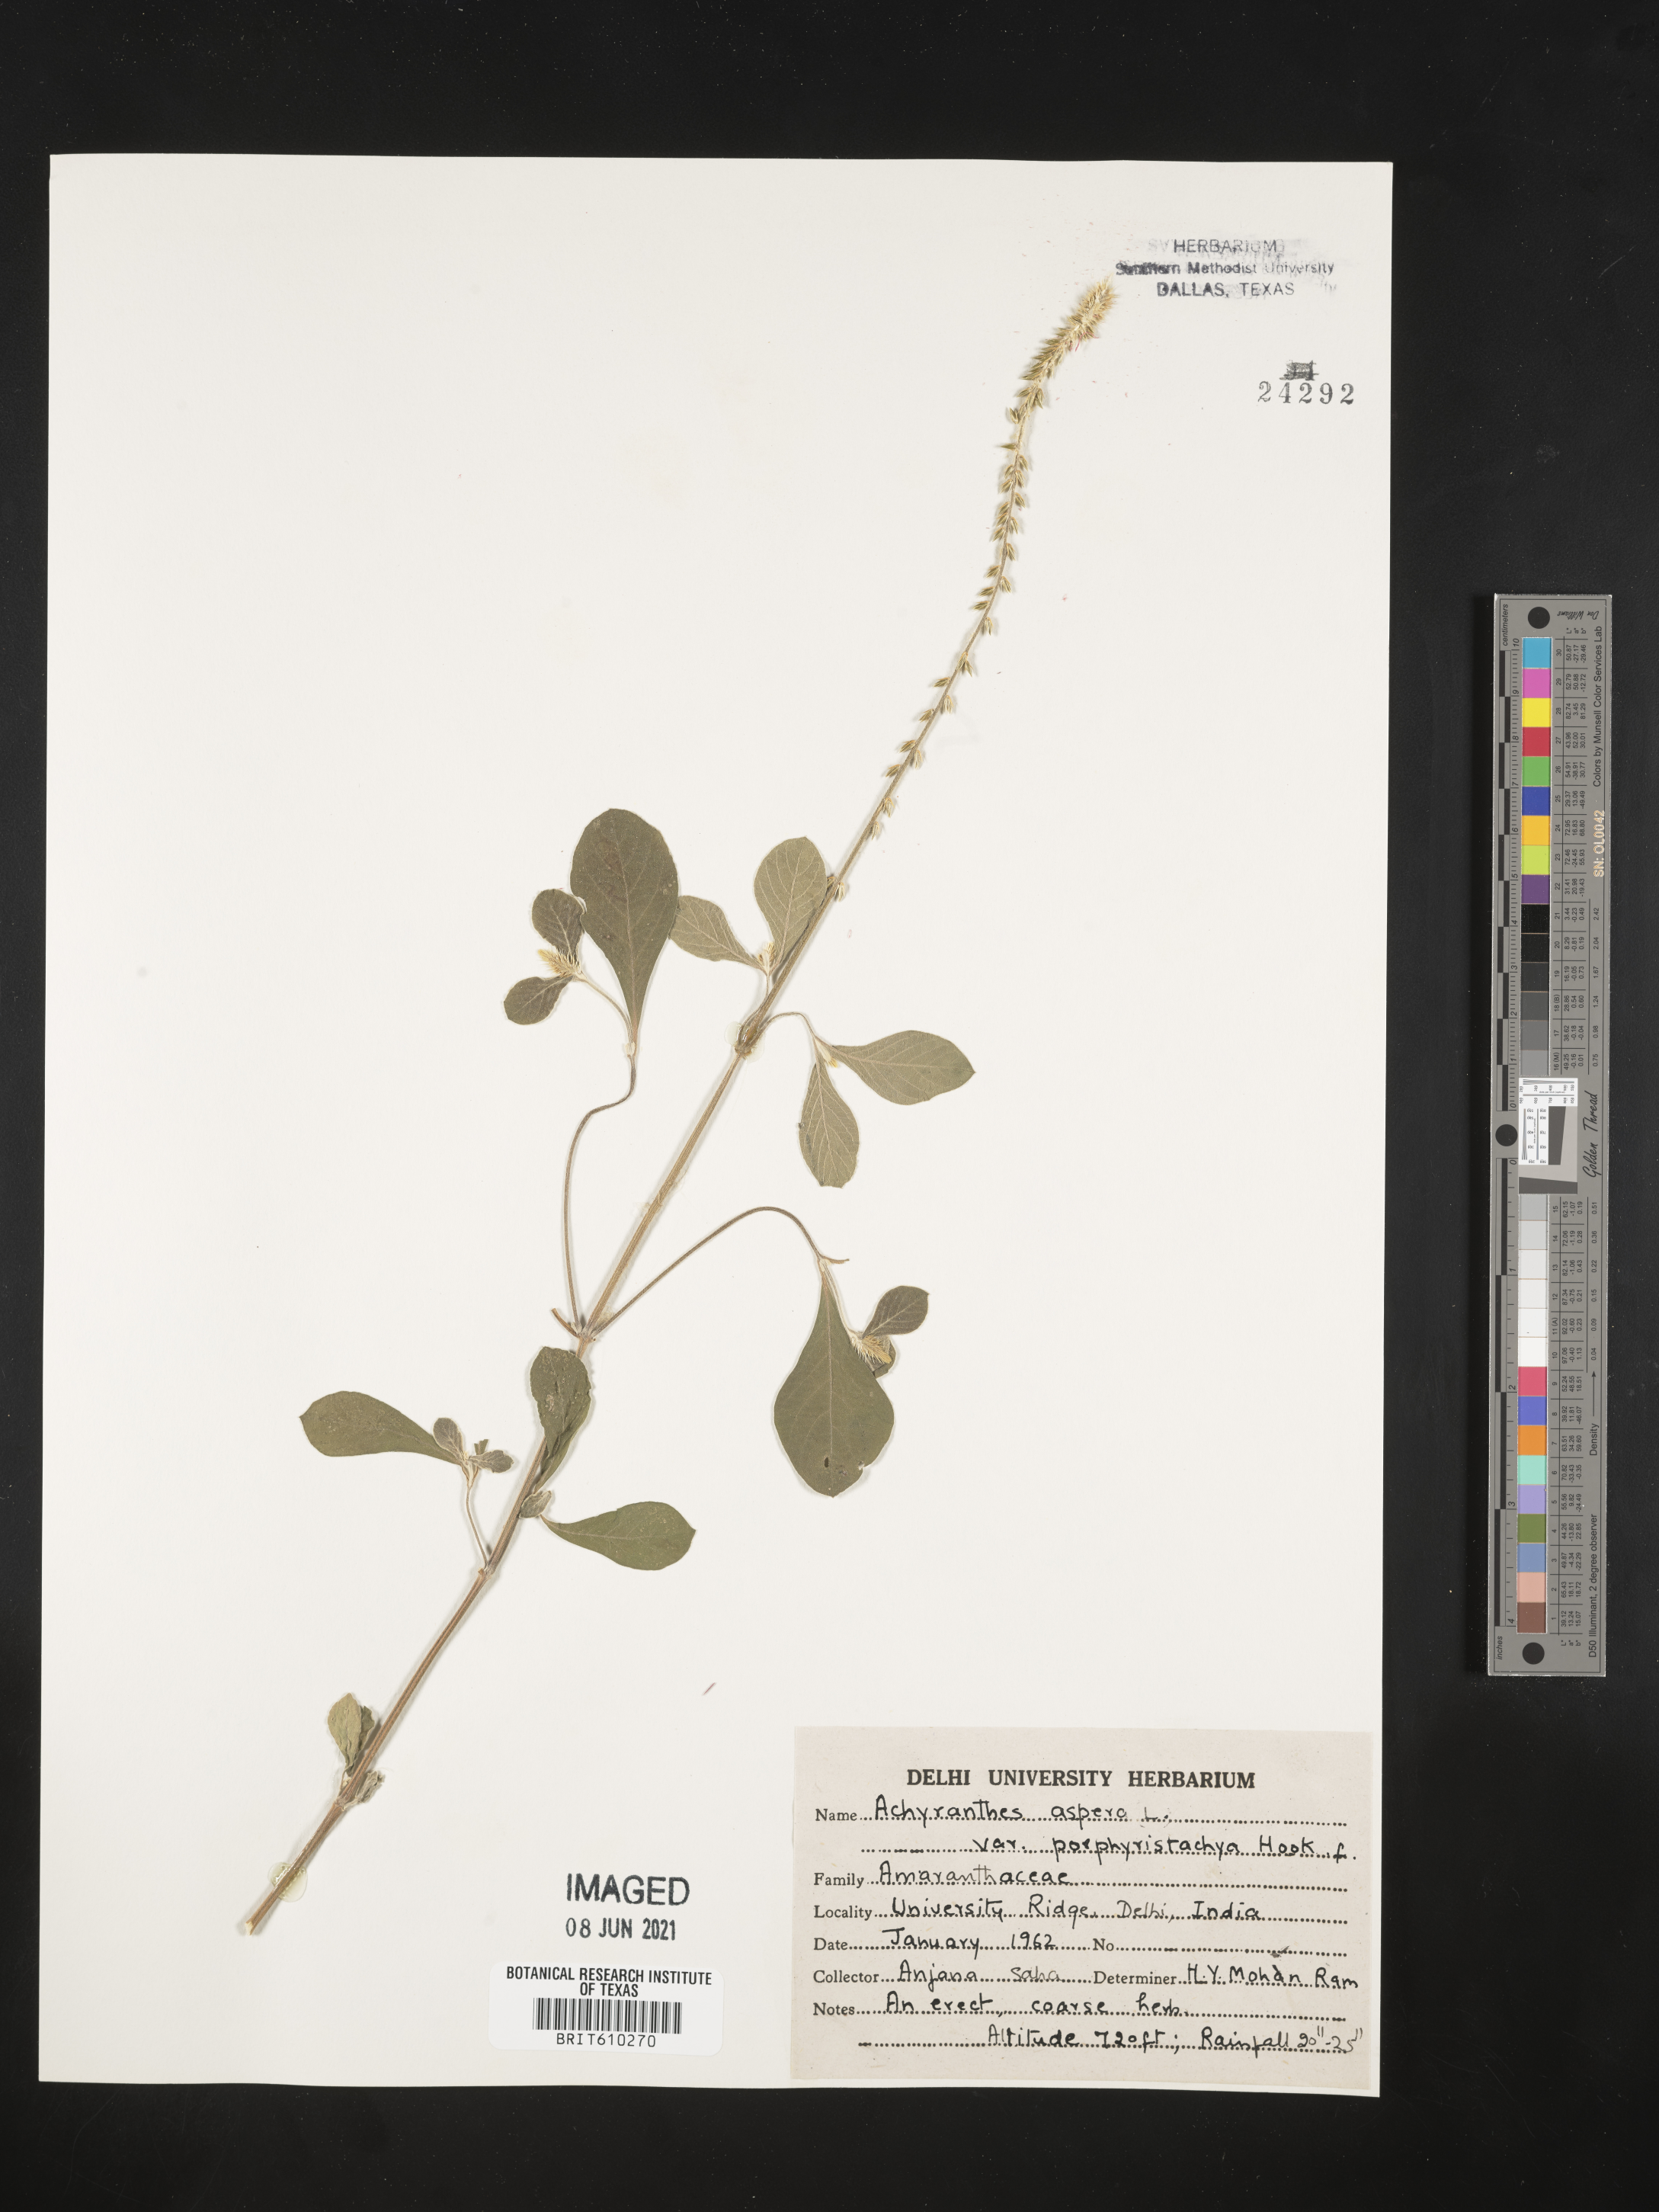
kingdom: Plantae
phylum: Tracheophyta
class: Magnoliopsida
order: Caryophyllales
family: Amaranthaceae
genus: Achyranthes
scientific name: Achyranthes coynei
